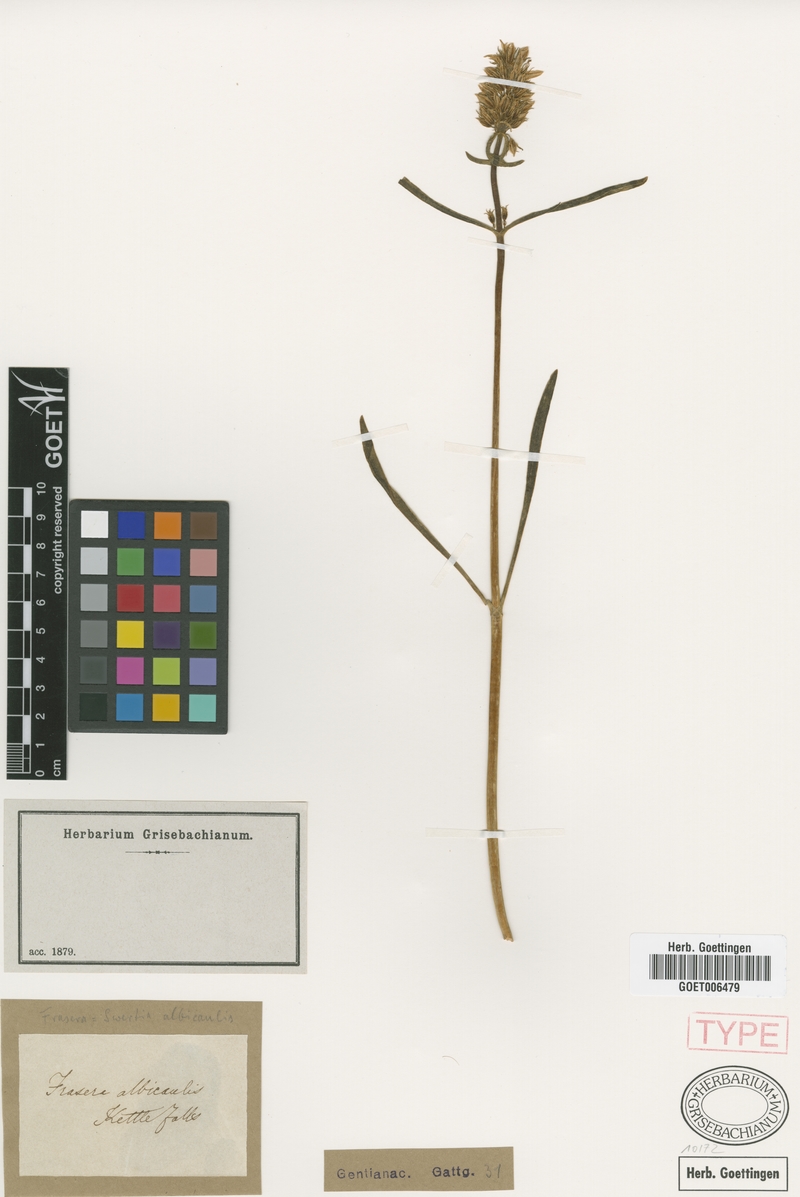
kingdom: Plantae
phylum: Tracheophyta
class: Magnoliopsida
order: Gentianales
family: Gentianaceae
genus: Frasera
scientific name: Frasera albicaulis
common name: Cusick's frasera
